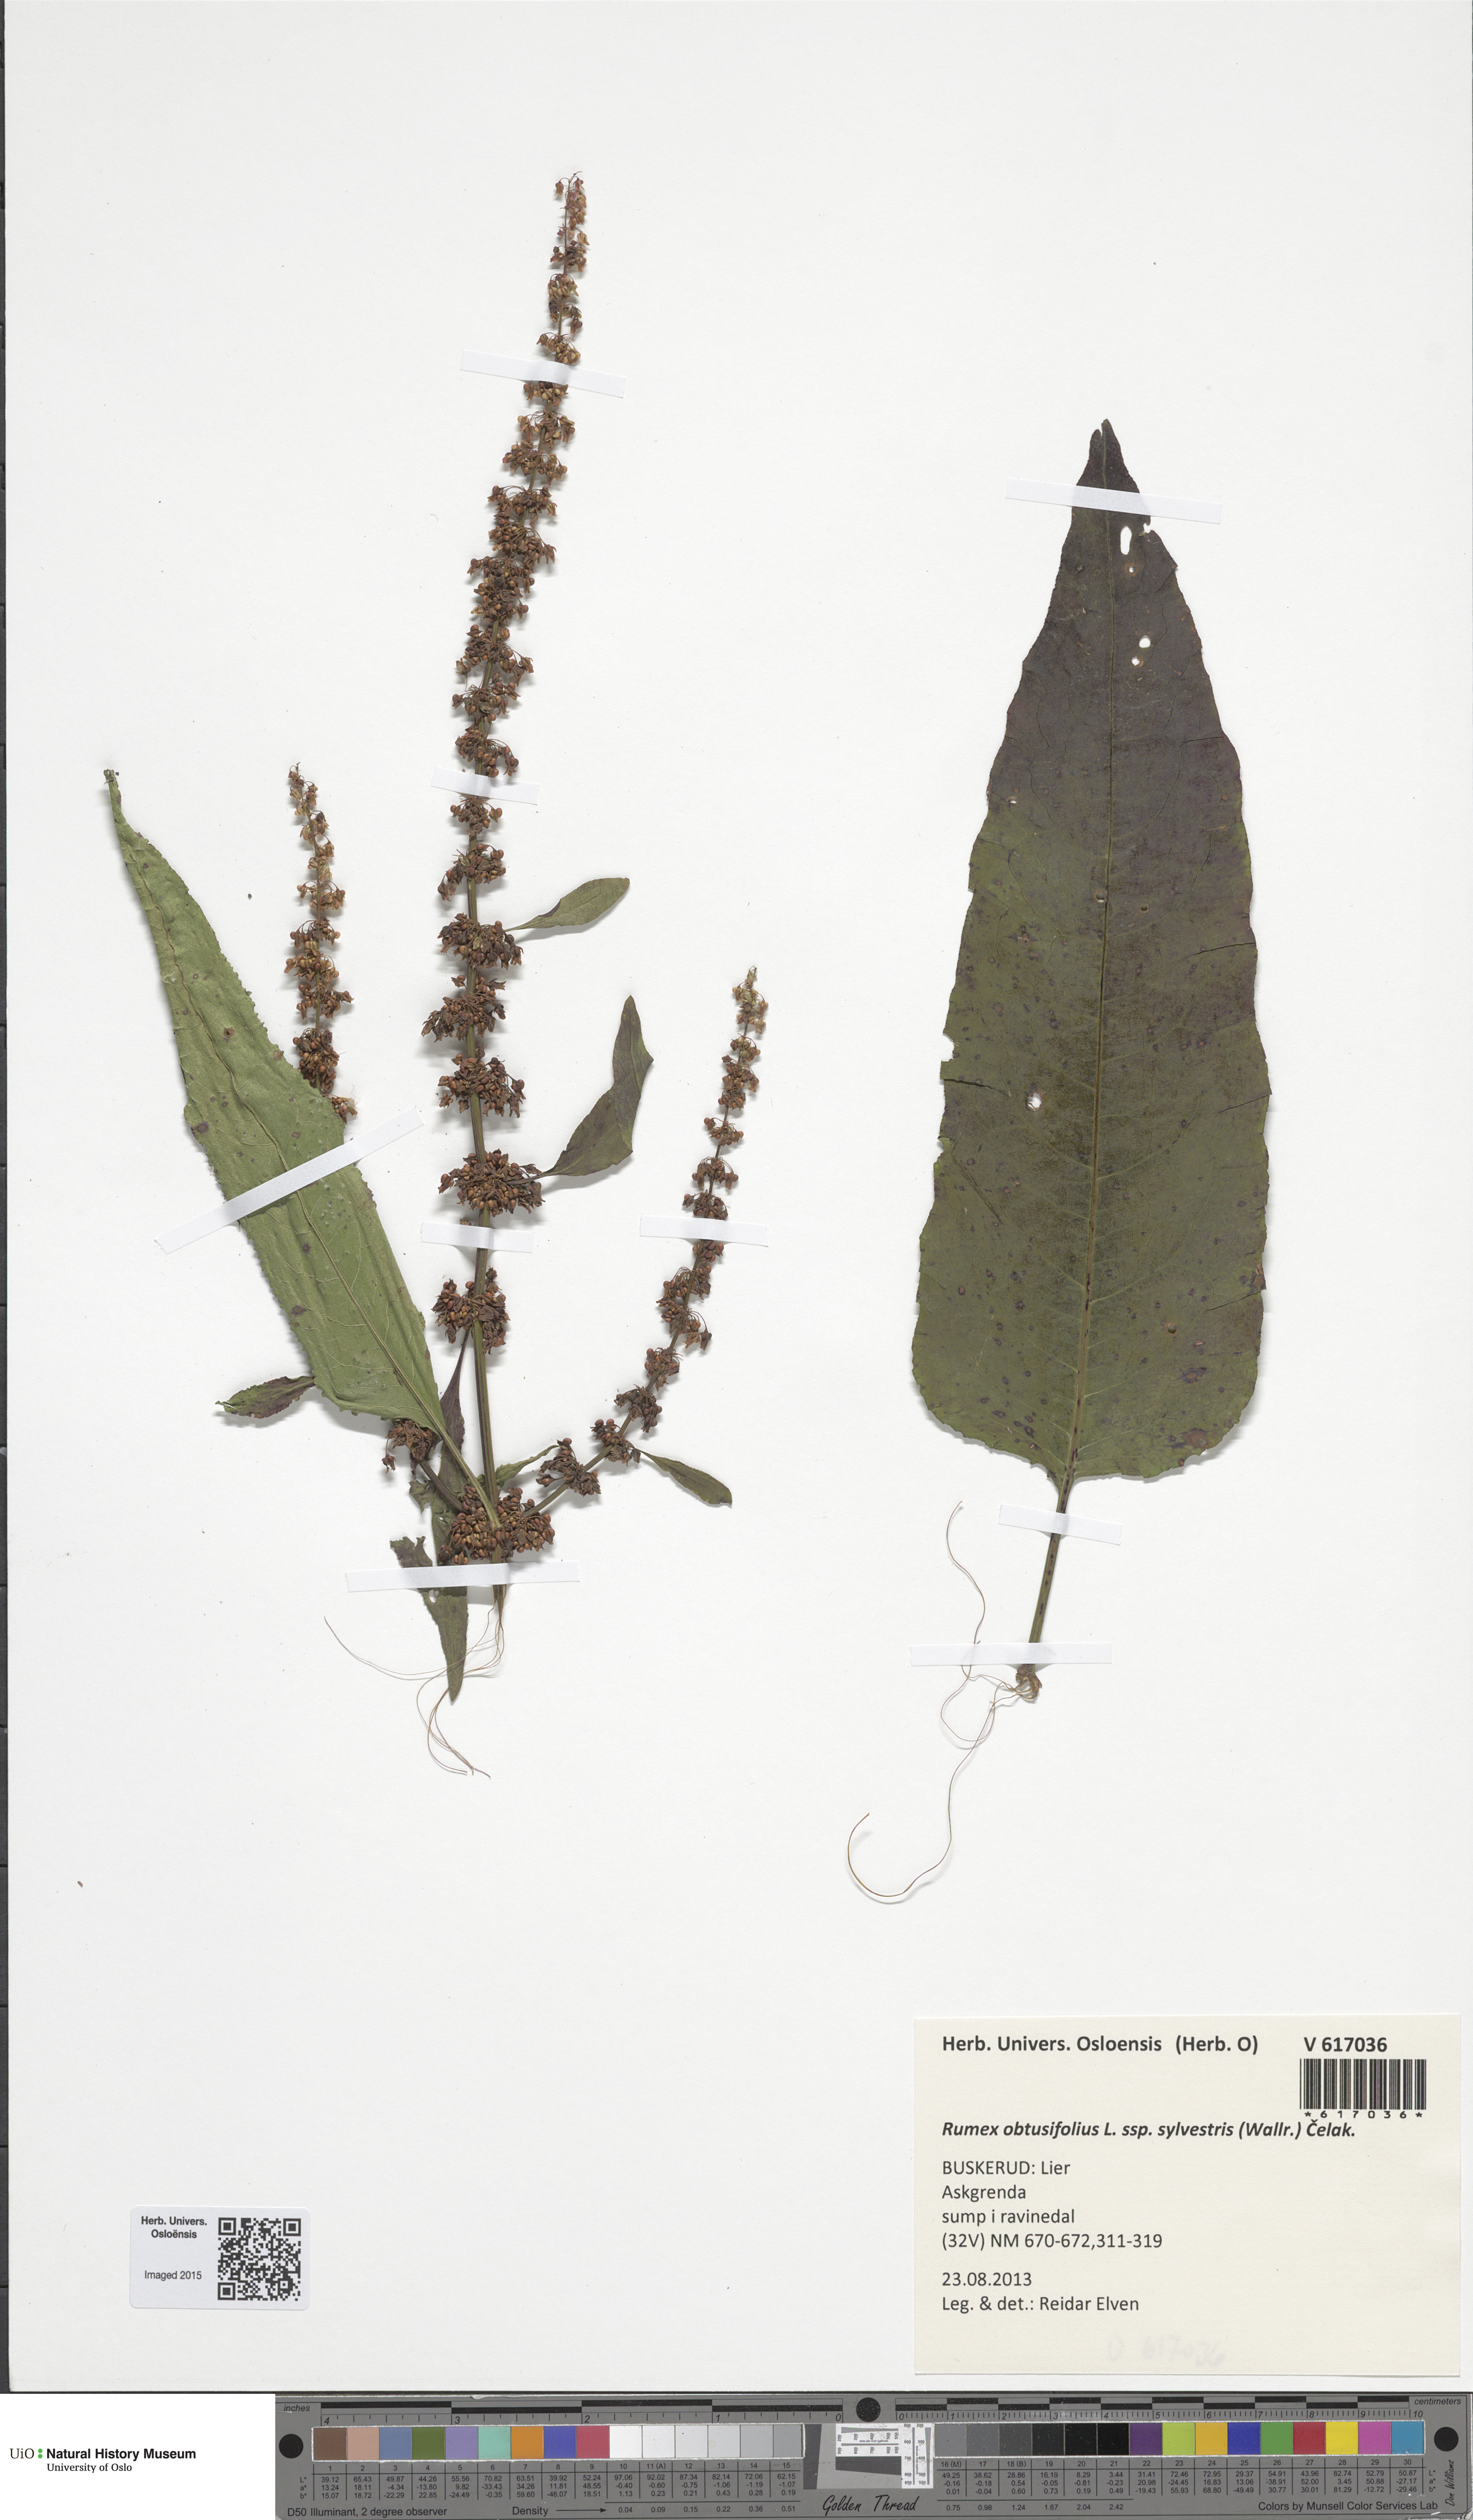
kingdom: Plantae
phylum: Tracheophyta
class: Magnoliopsida
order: Caryophyllales
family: Polygonaceae
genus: Rumex
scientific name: Rumex obtusifolius
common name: Bitter dock
